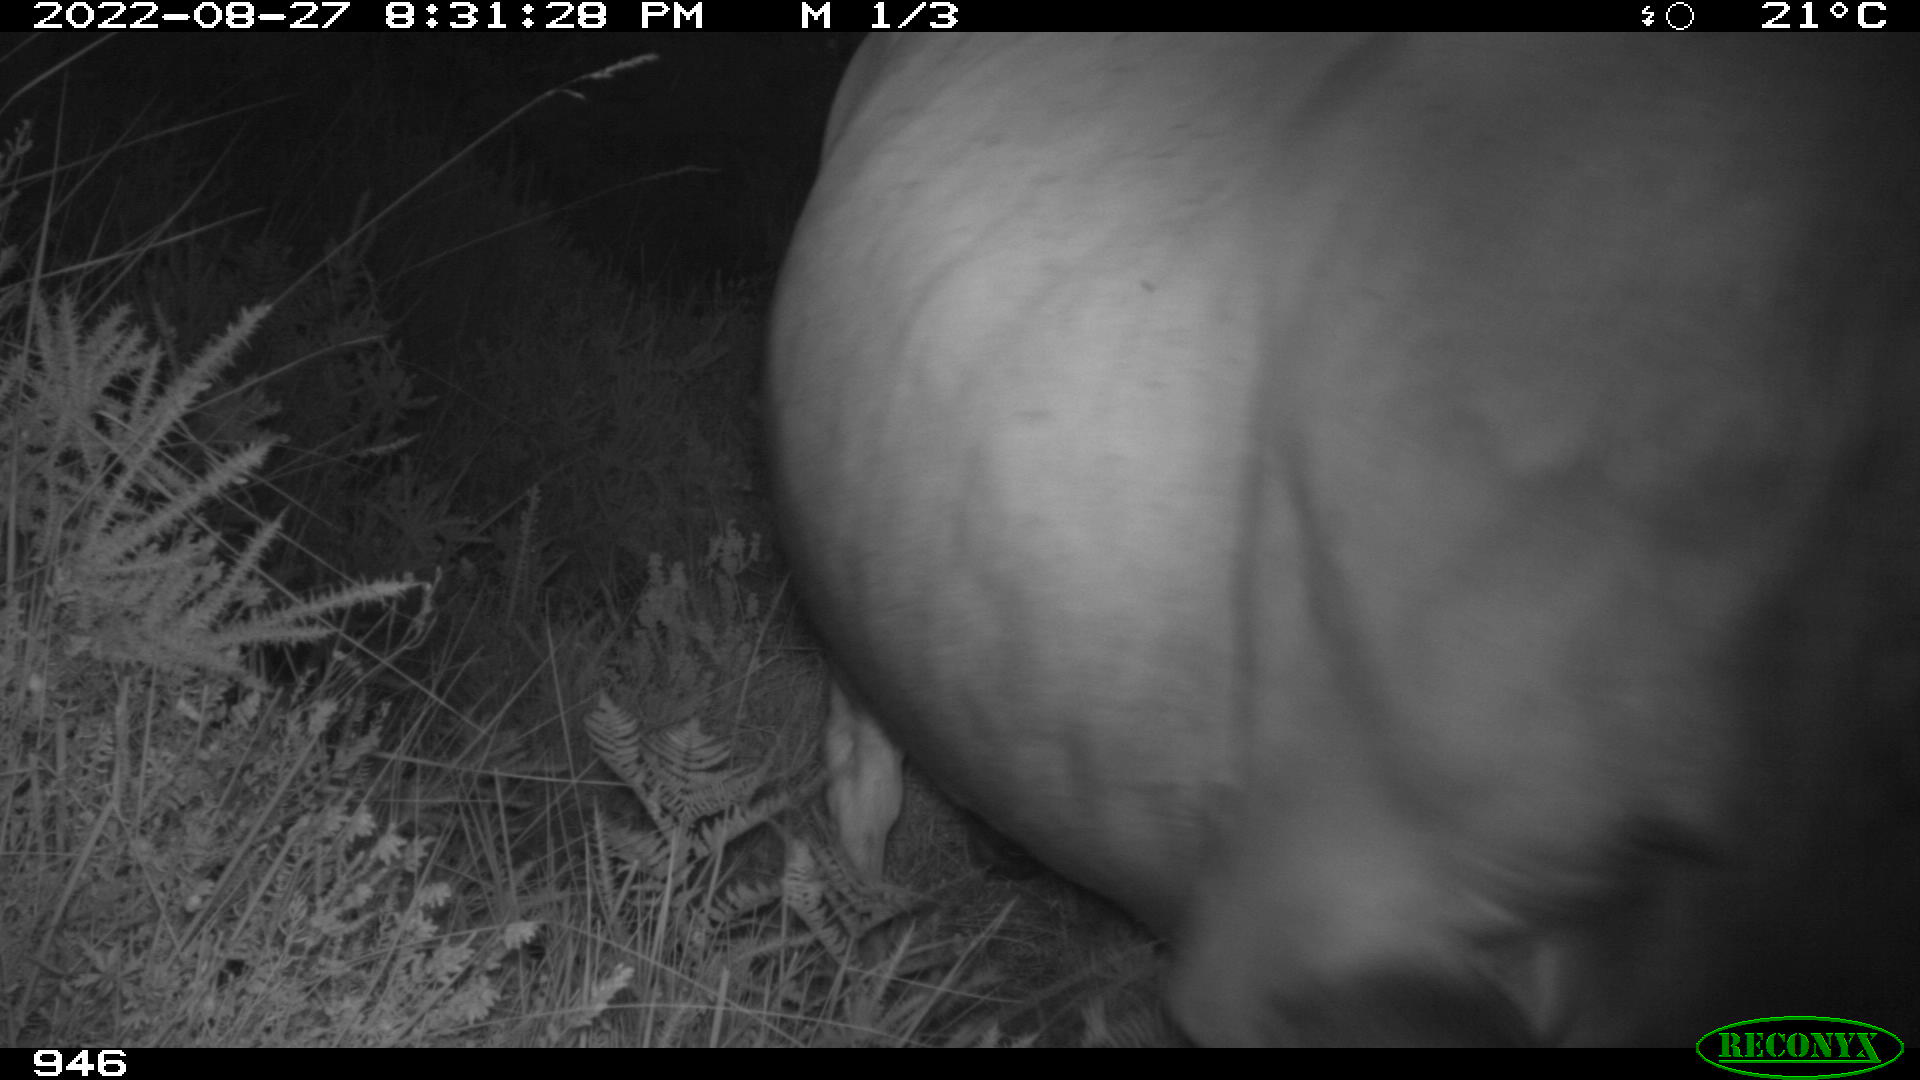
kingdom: Animalia
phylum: Chordata
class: Mammalia
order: Artiodactyla
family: Bovidae
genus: Bos
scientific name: Bos taurus
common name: Domesticated cattle
